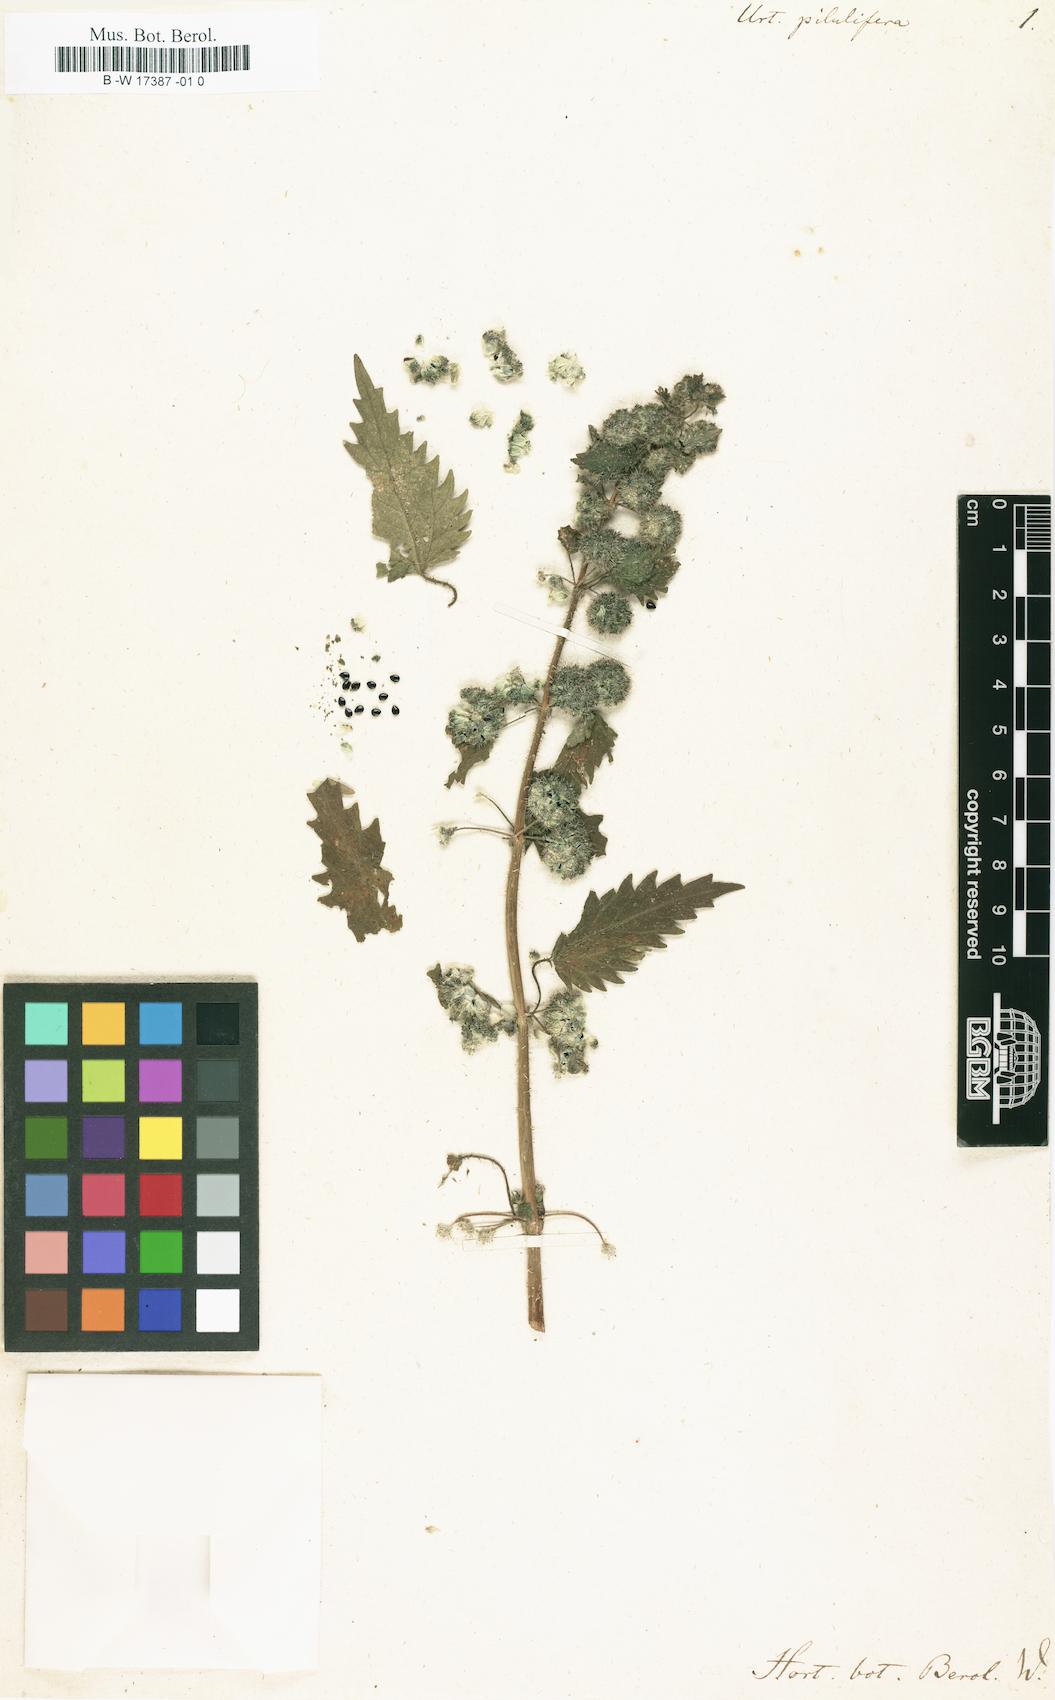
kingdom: Plantae
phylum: Tracheophyta
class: Magnoliopsida
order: Rosales
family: Urticaceae
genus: Urtica
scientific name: Urtica pilulifera
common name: Roman nettle
